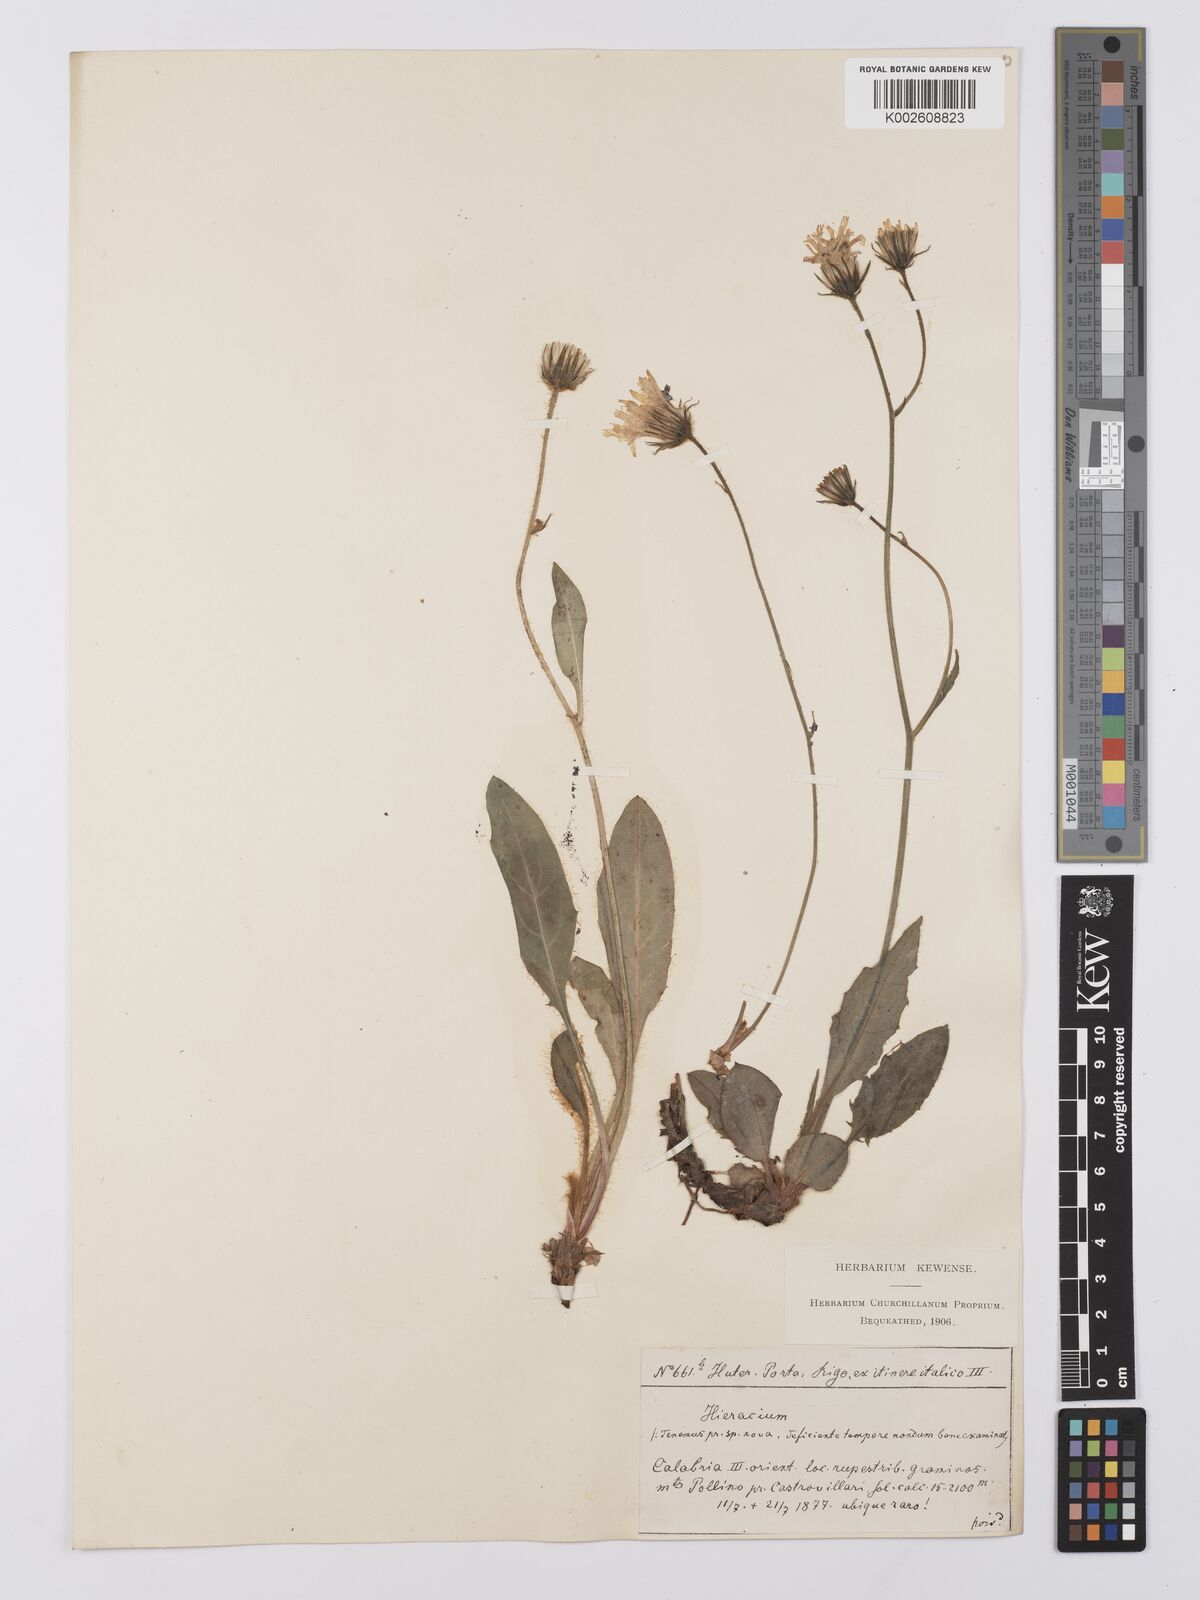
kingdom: Plantae
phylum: Tracheophyta
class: Magnoliopsida
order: Asterales
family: Asteraceae
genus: Hieracium
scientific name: Hieracium hypochoeroides
